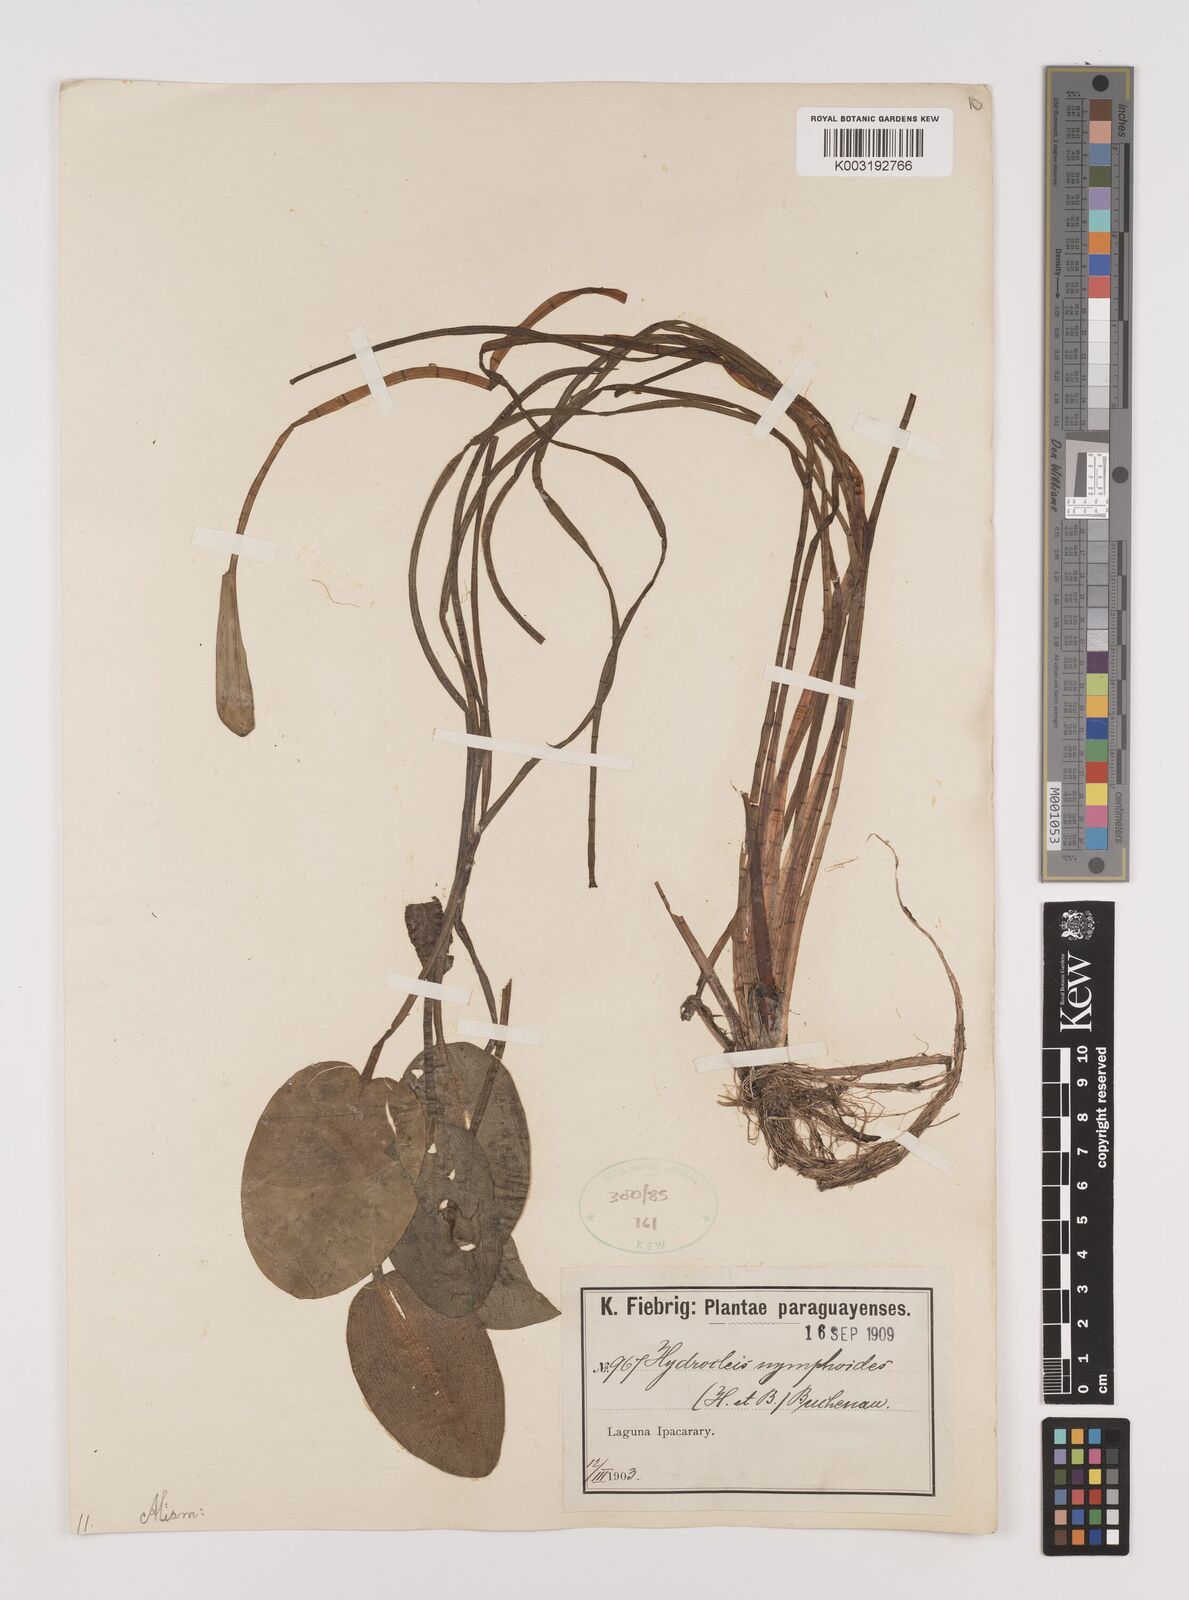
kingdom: Plantae
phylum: Tracheophyta
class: Liliopsida
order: Alismatales
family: Alismataceae
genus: Hydrocleys
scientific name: Hydrocleys nymphoides
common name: Water-poppy
